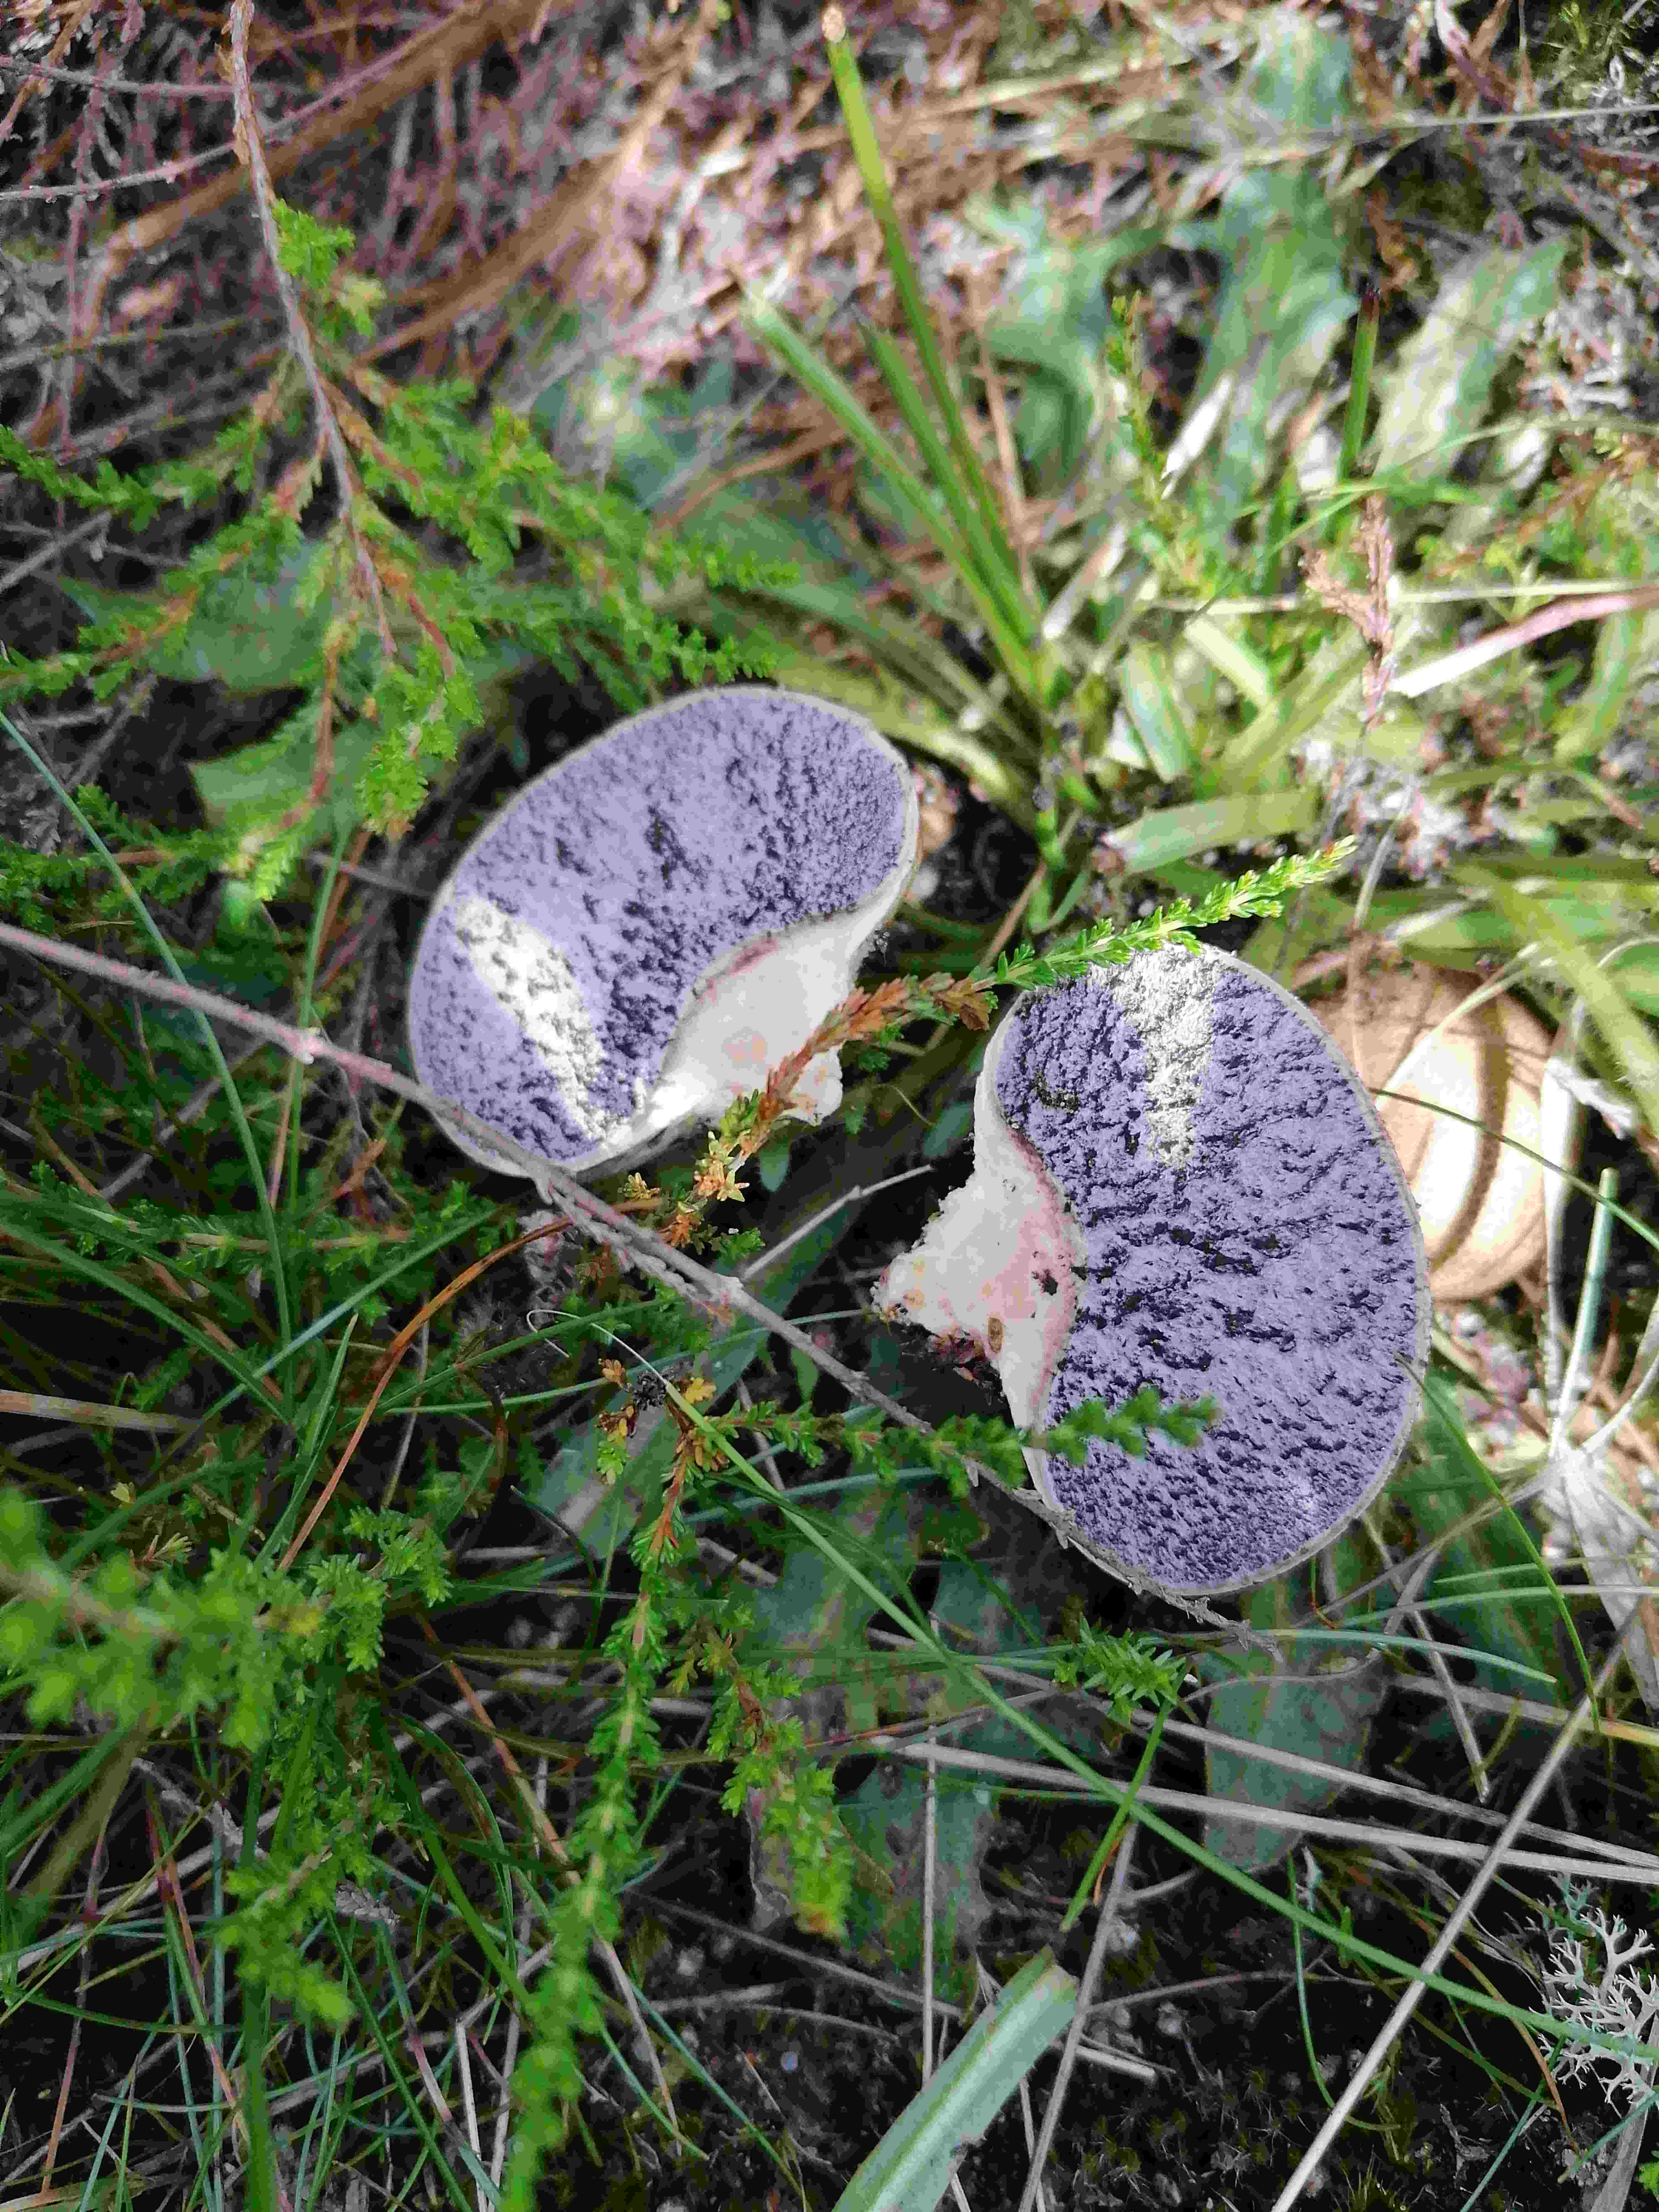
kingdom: Fungi
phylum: Basidiomycota
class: Agaricomycetes
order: Boletales
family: Sclerodermataceae
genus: Scleroderma
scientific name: Scleroderma areolatum
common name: plettet bruskbold
